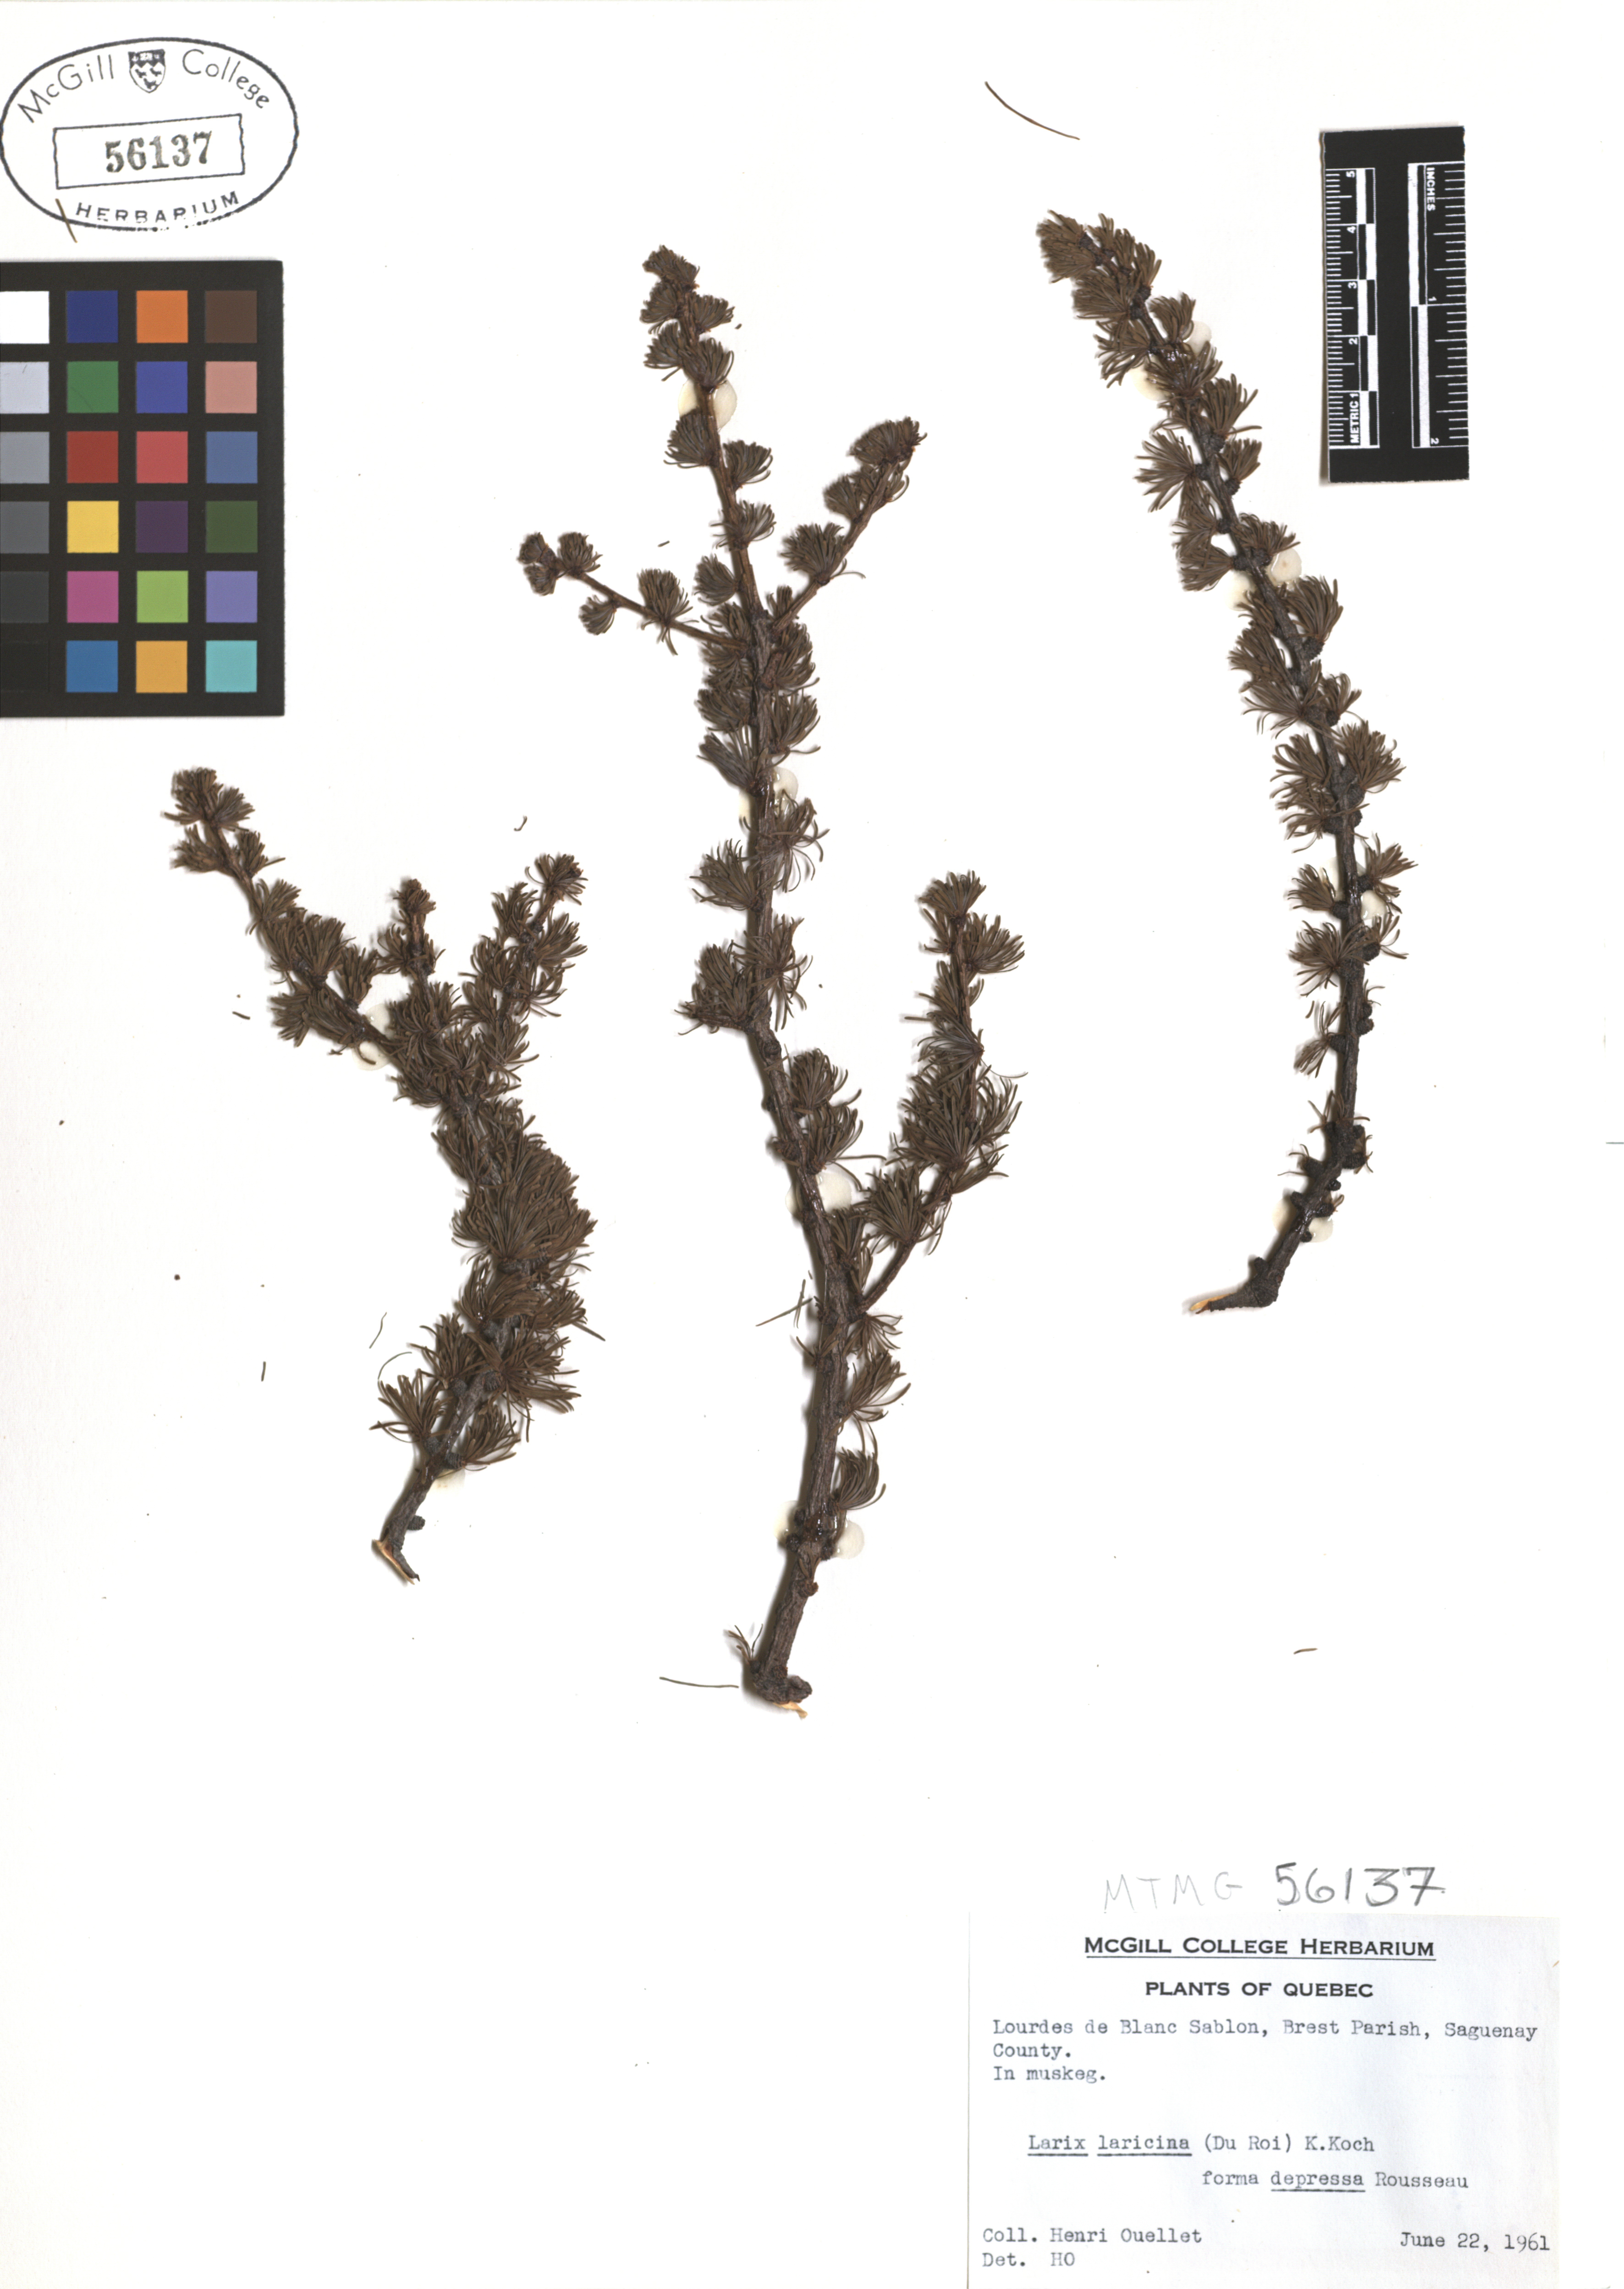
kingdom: Plantae
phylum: Tracheophyta
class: Pinopsida
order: Pinales
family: Pinaceae
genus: Larix
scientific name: Larix laricina
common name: American larch
